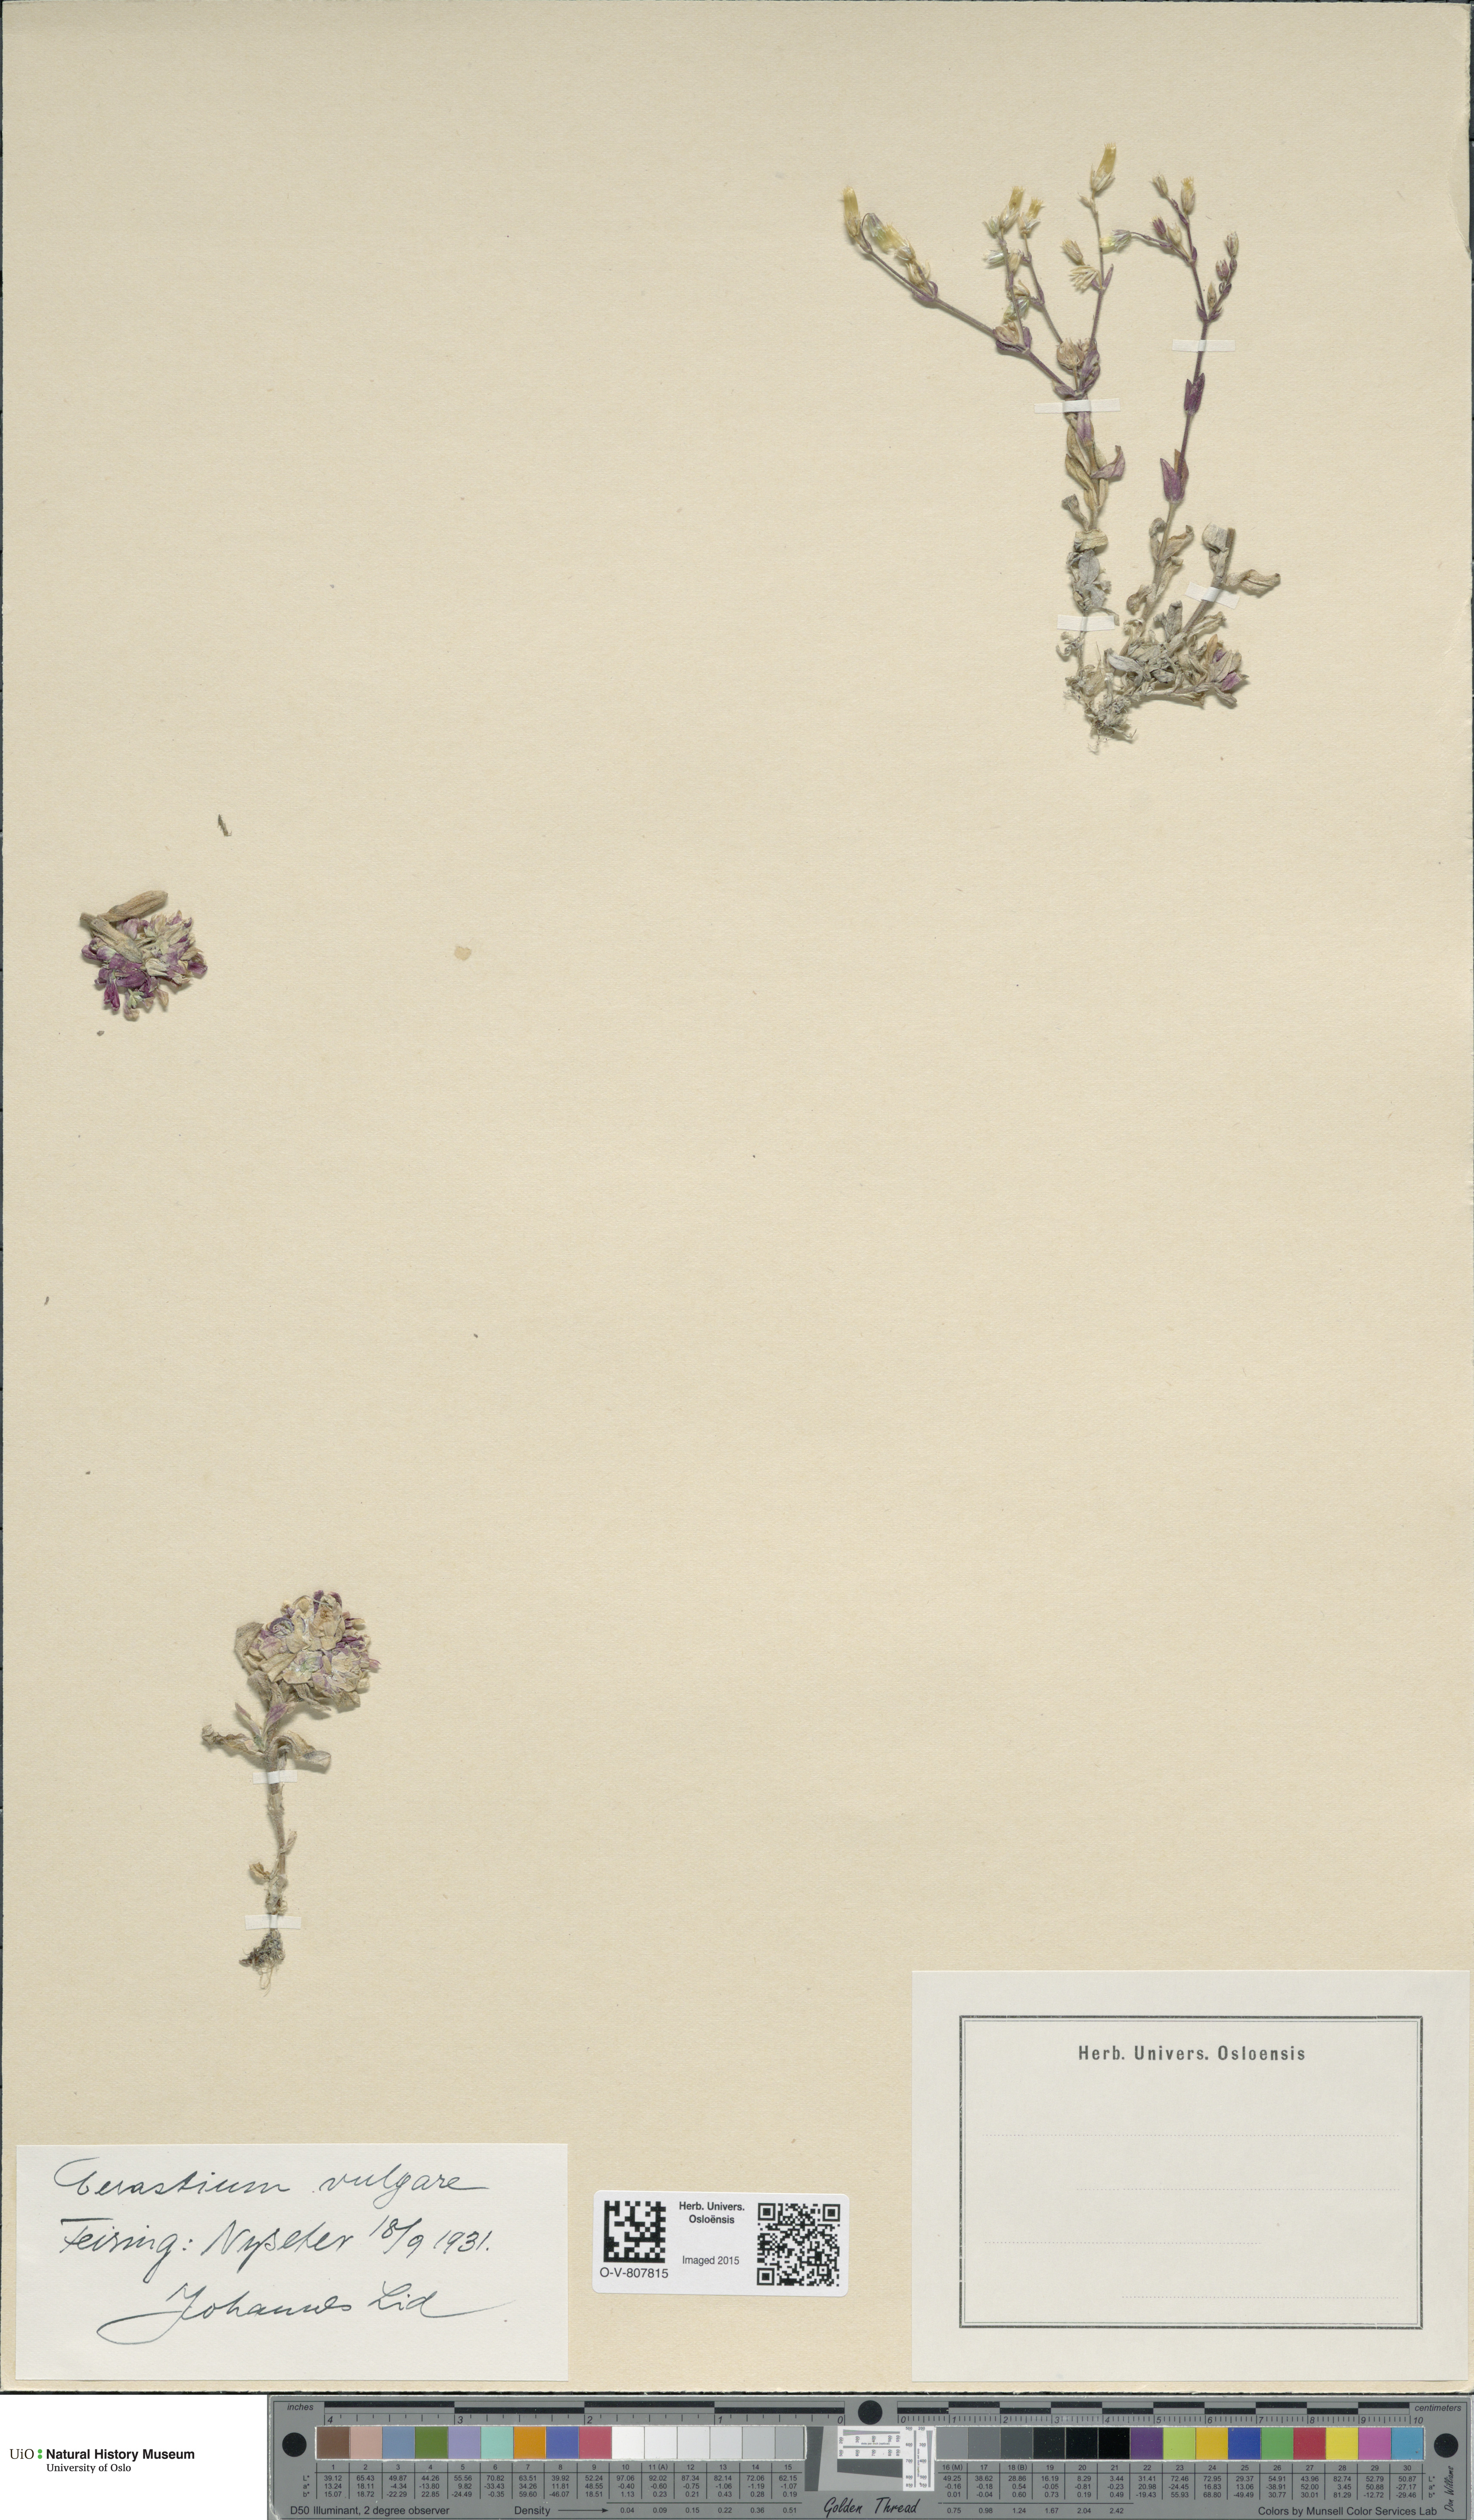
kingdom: Plantae
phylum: Tracheophyta
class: Magnoliopsida
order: Caryophyllales
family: Caryophyllaceae
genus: Cerastium
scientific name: Cerastium holosteoides
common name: Big chickweed
